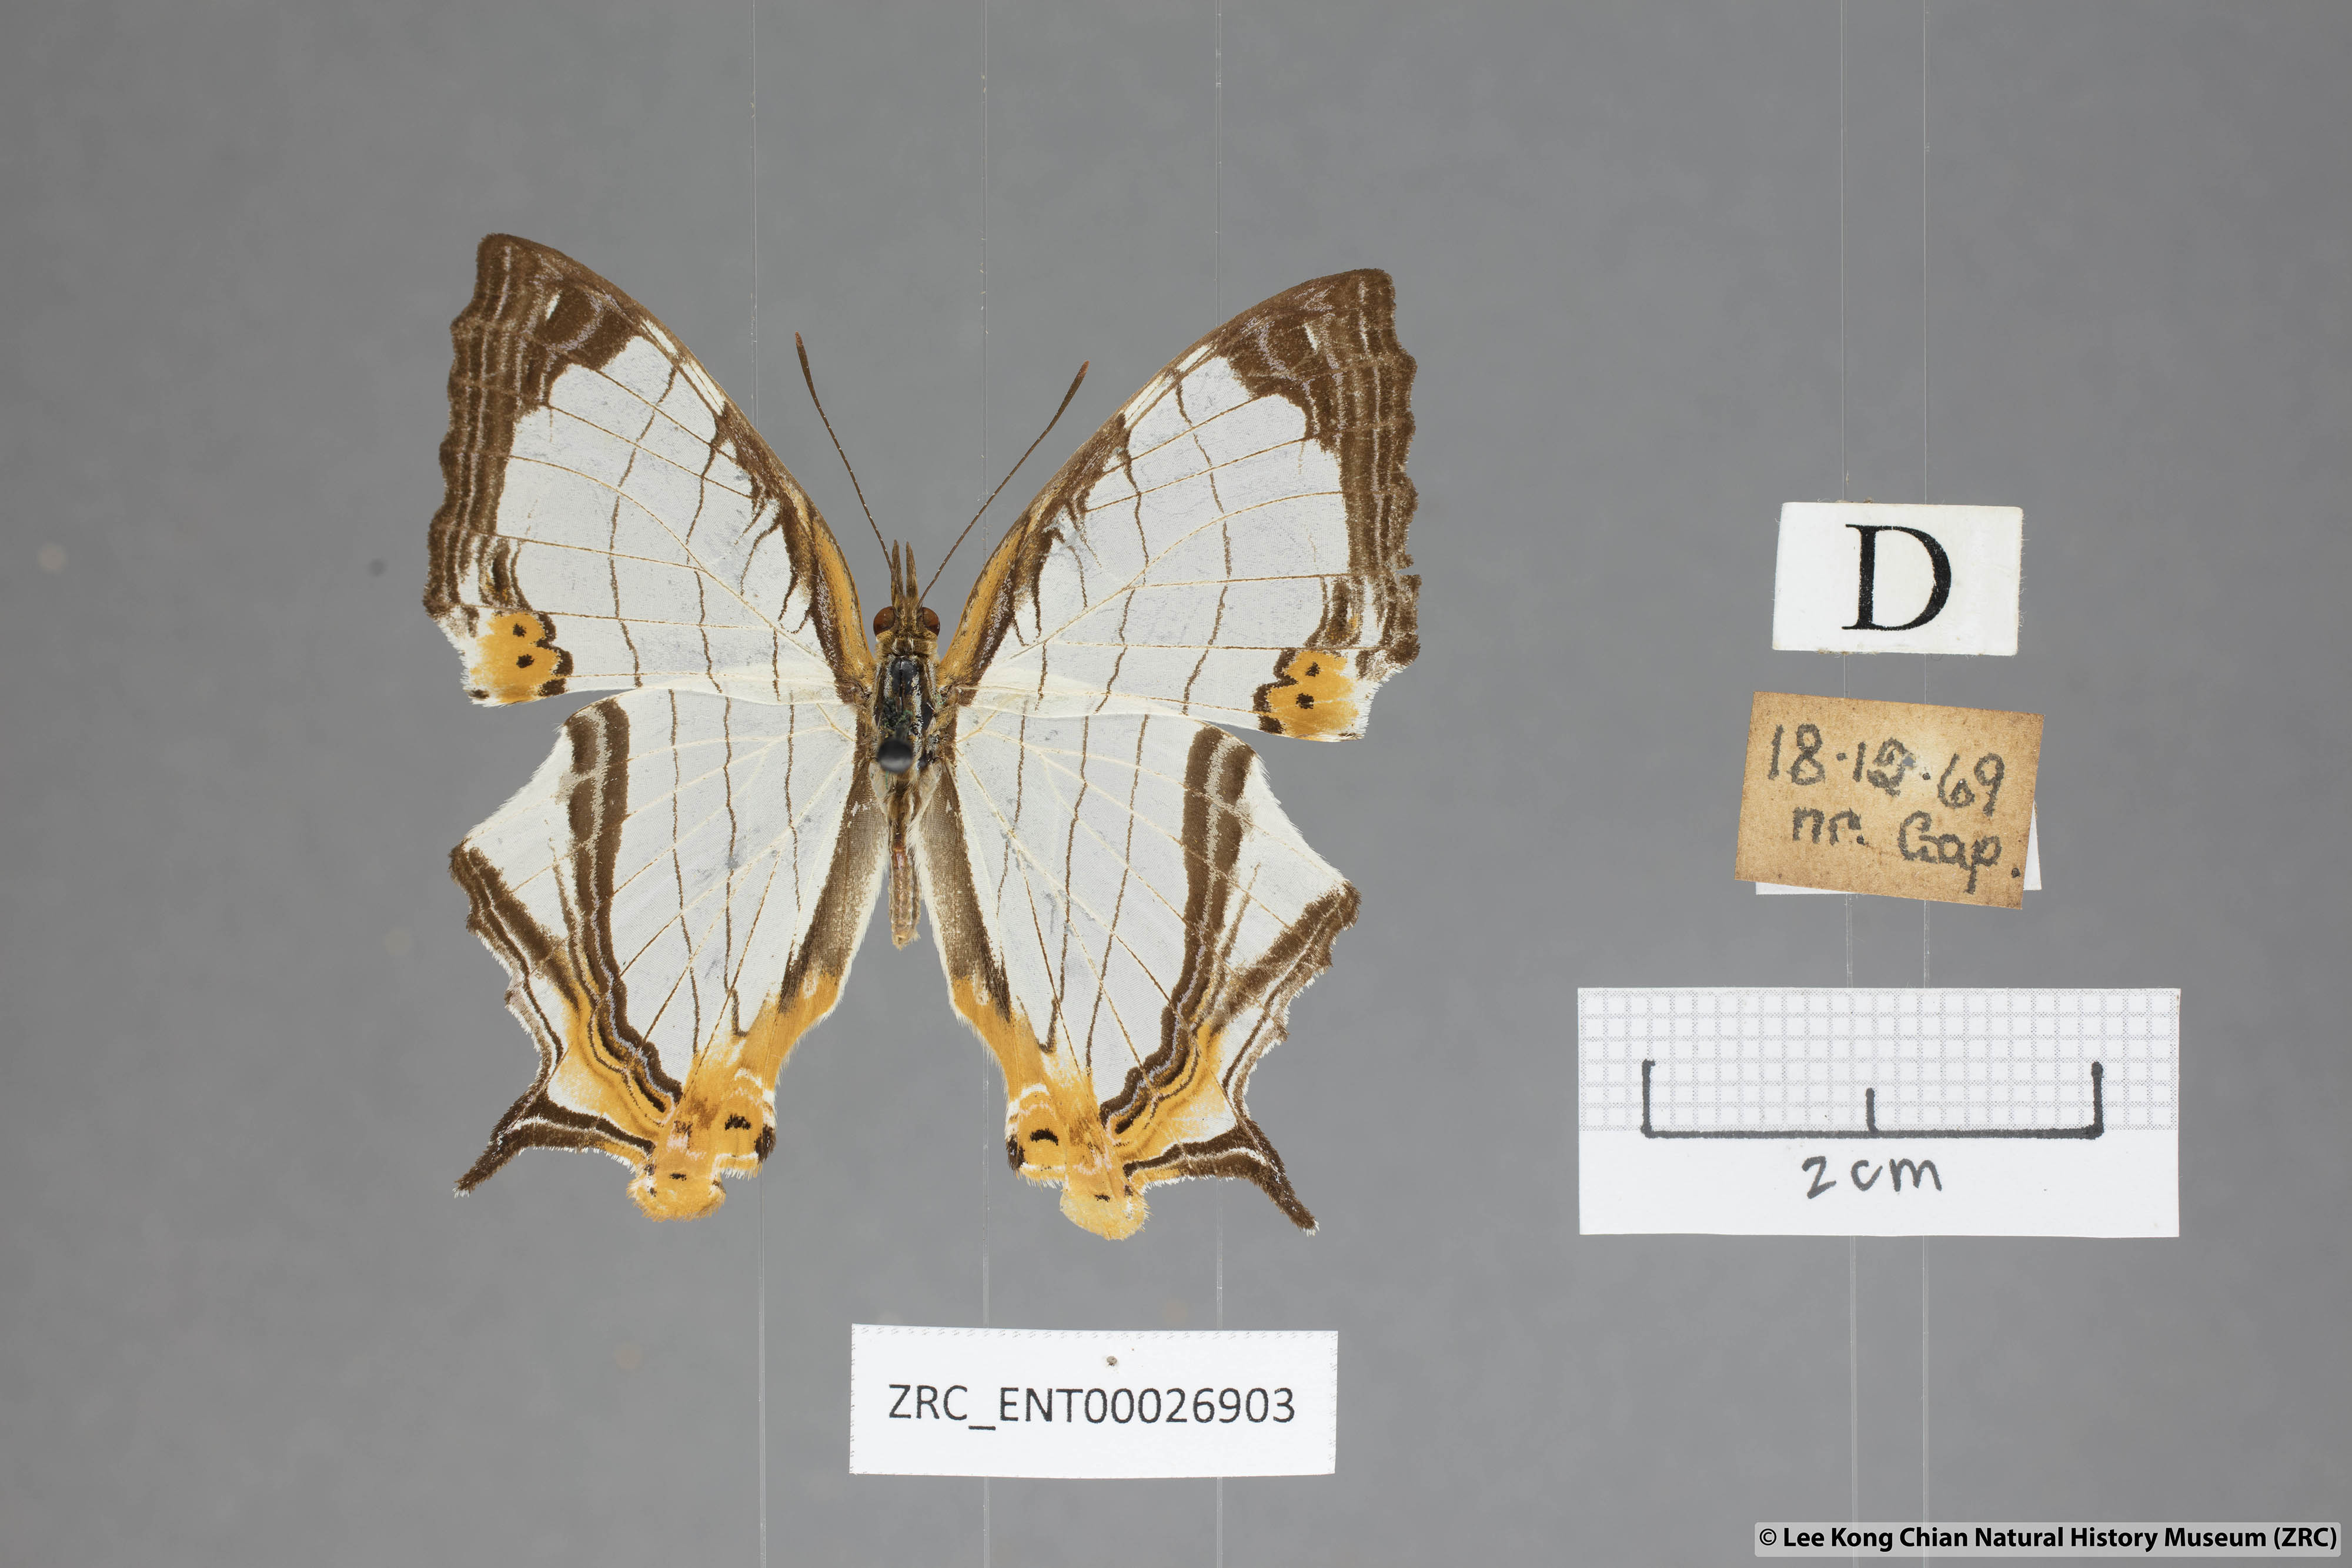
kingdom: Animalia
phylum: Arthropoda
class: Insecta
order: Lepidoptera
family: Nymphalidae
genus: Cyrestis
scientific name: Cyrestis nivea
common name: Straight line mapwing
